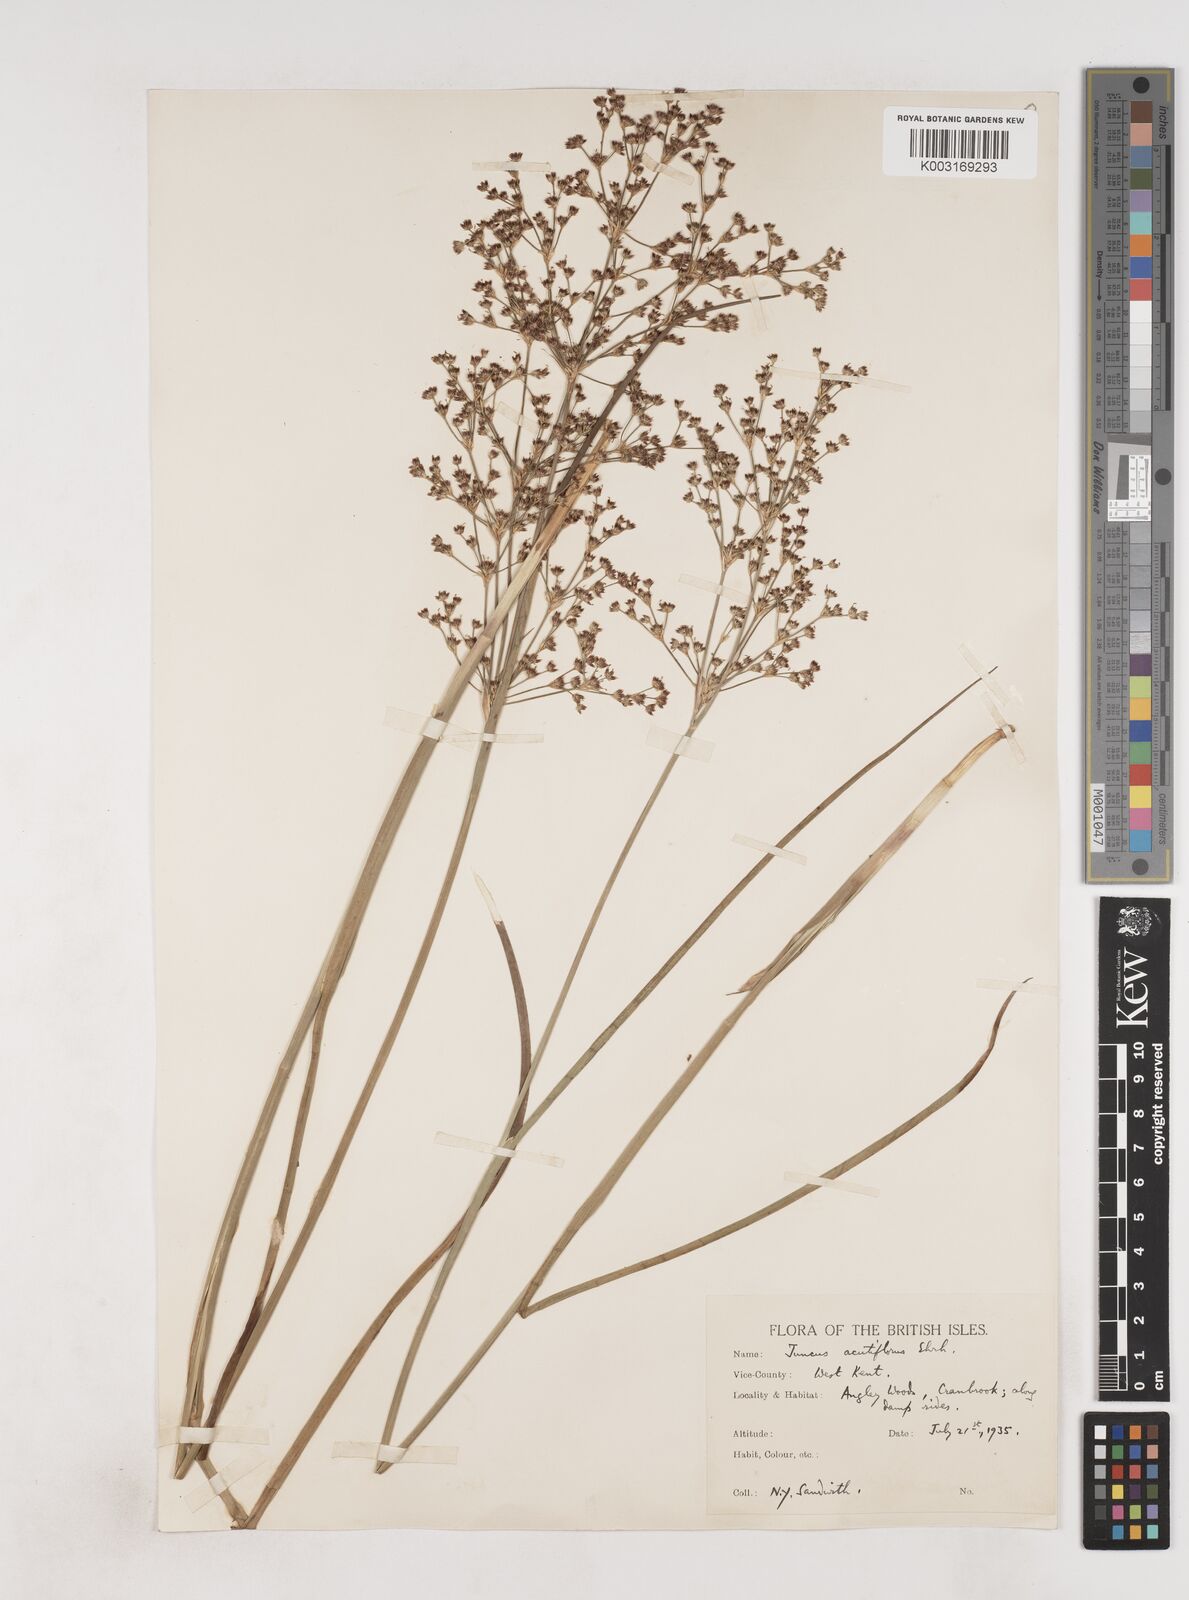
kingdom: Plantae
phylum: Tracheophyta
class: Liliopsida
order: Poales
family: Juncaceae
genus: Juncus
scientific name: Juncus acutiflorus
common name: Sharp-flowered rush
